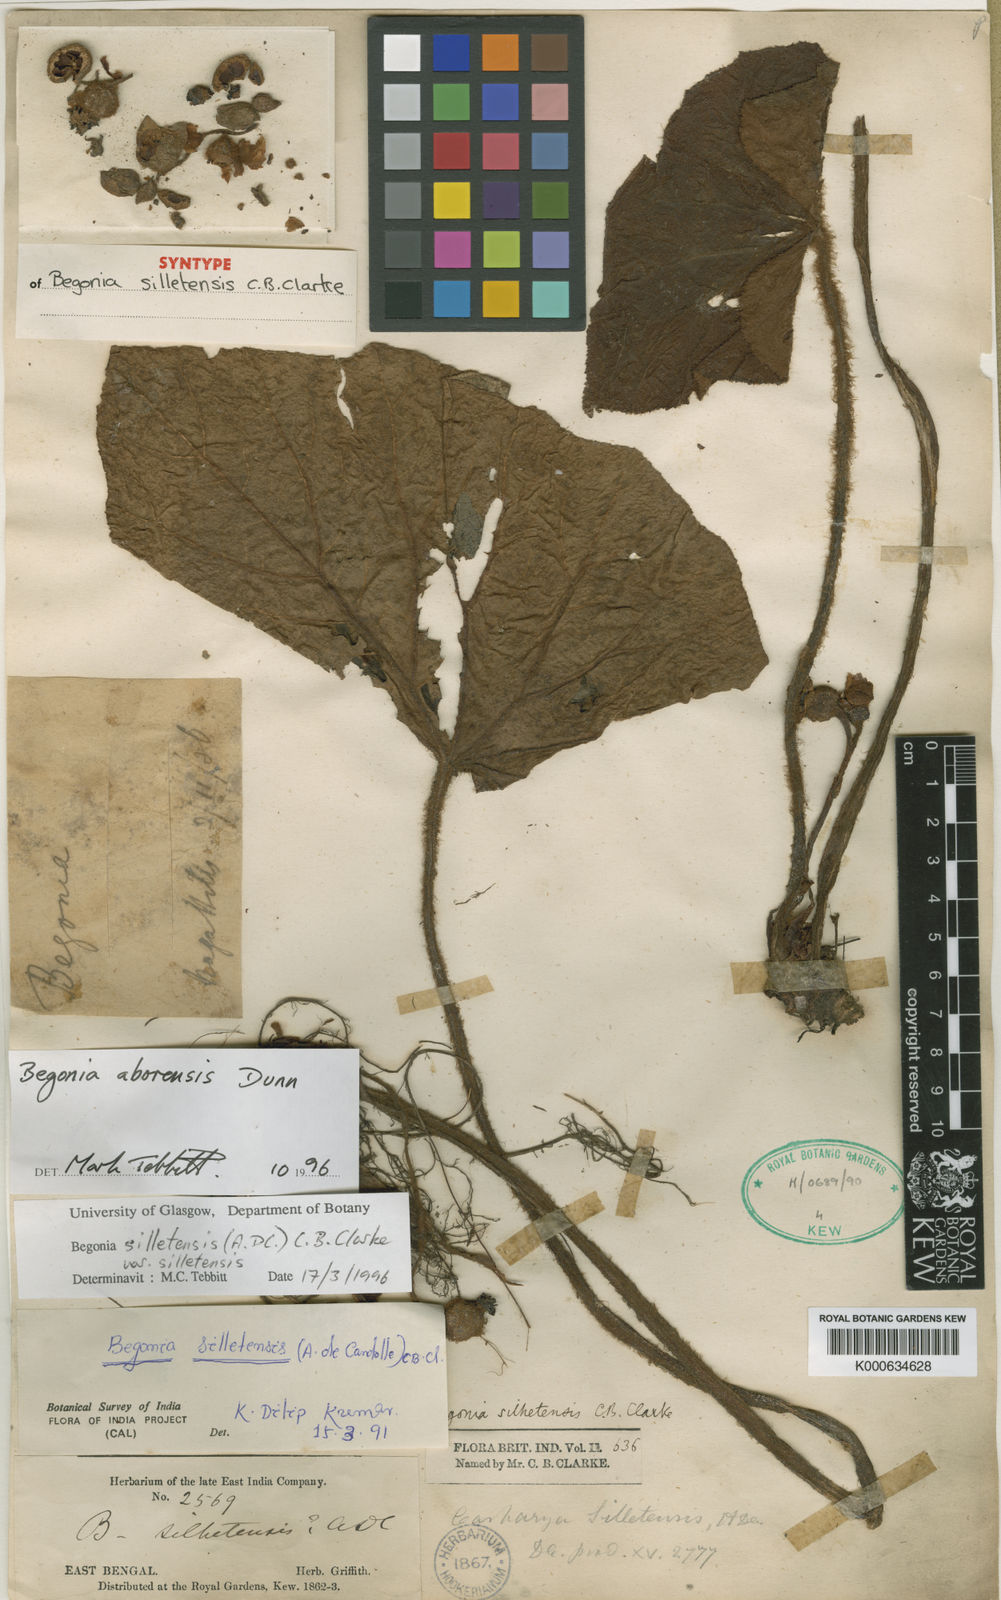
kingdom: Plantae
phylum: Tracheophyta
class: Magnoliopsida
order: Cucurbitales
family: Begoniaceae
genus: Begonia
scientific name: Begonia aborensis
